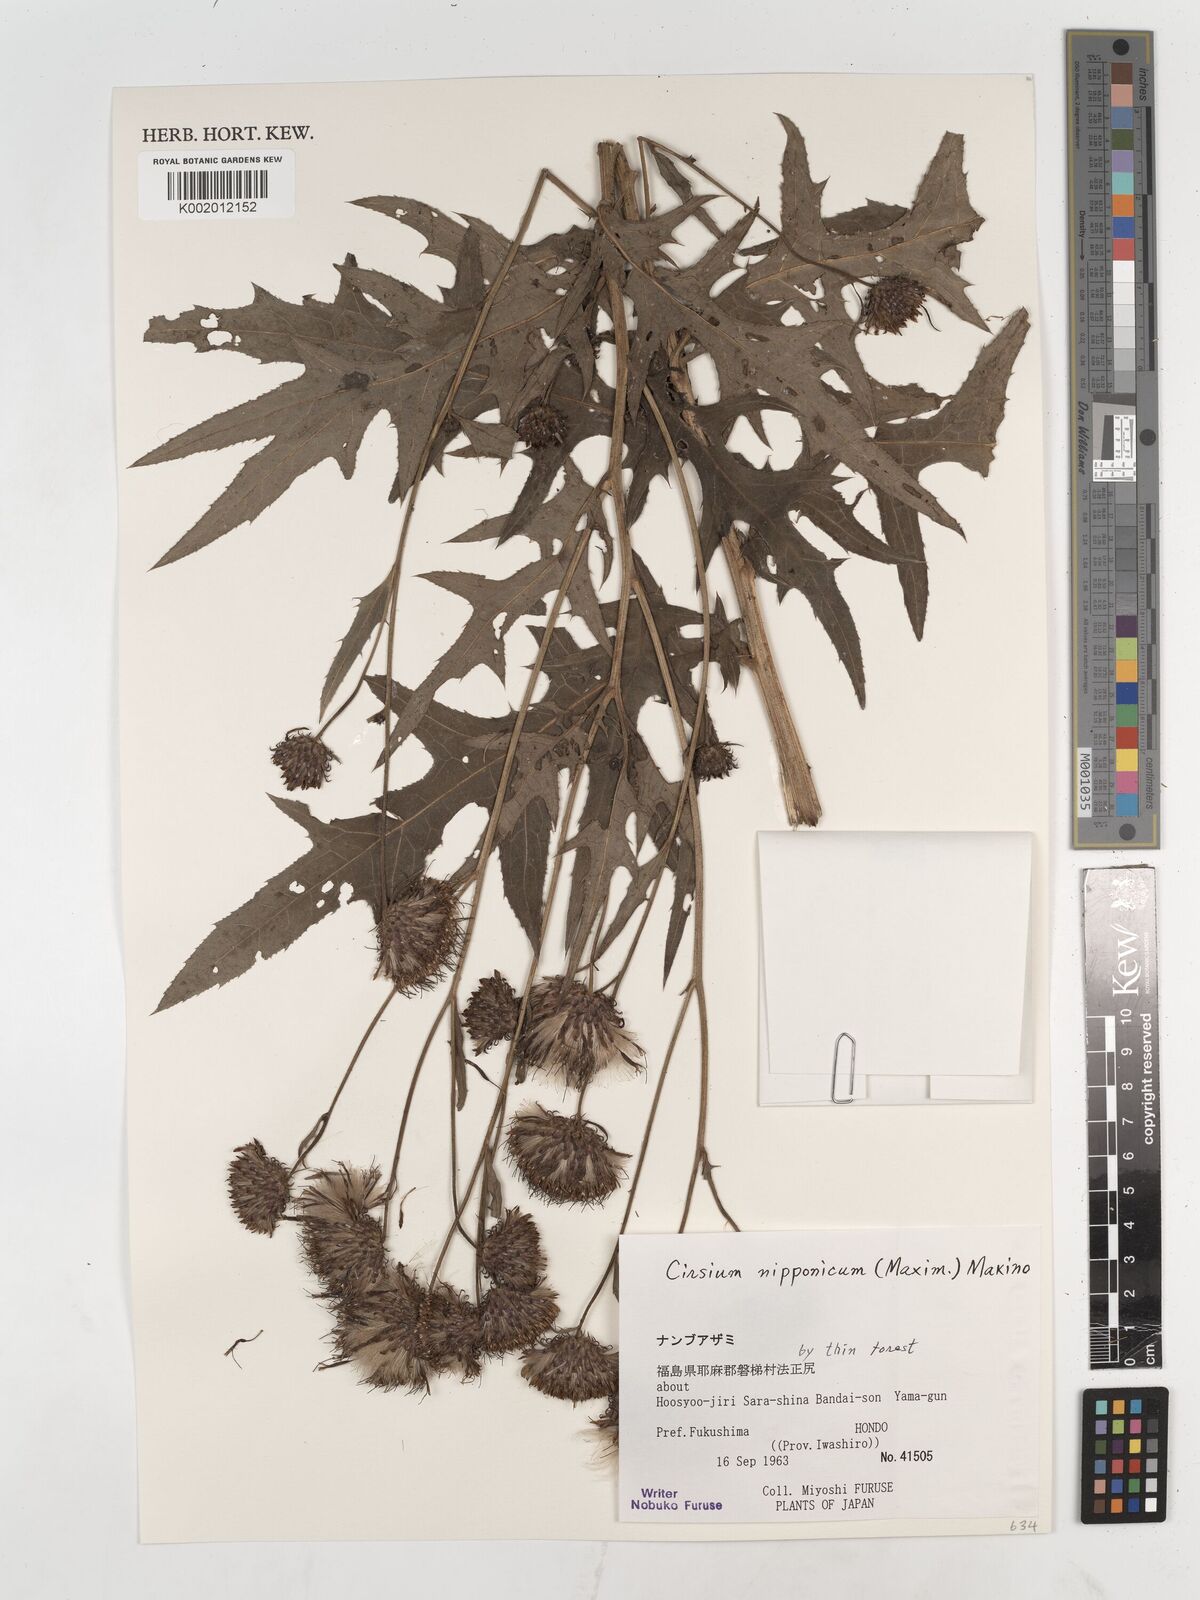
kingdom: Plantae
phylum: Tracheophyta
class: Magnoliopsida
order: Asterales
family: Asteraceae
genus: Cirsium
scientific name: Cirsium nippoense
